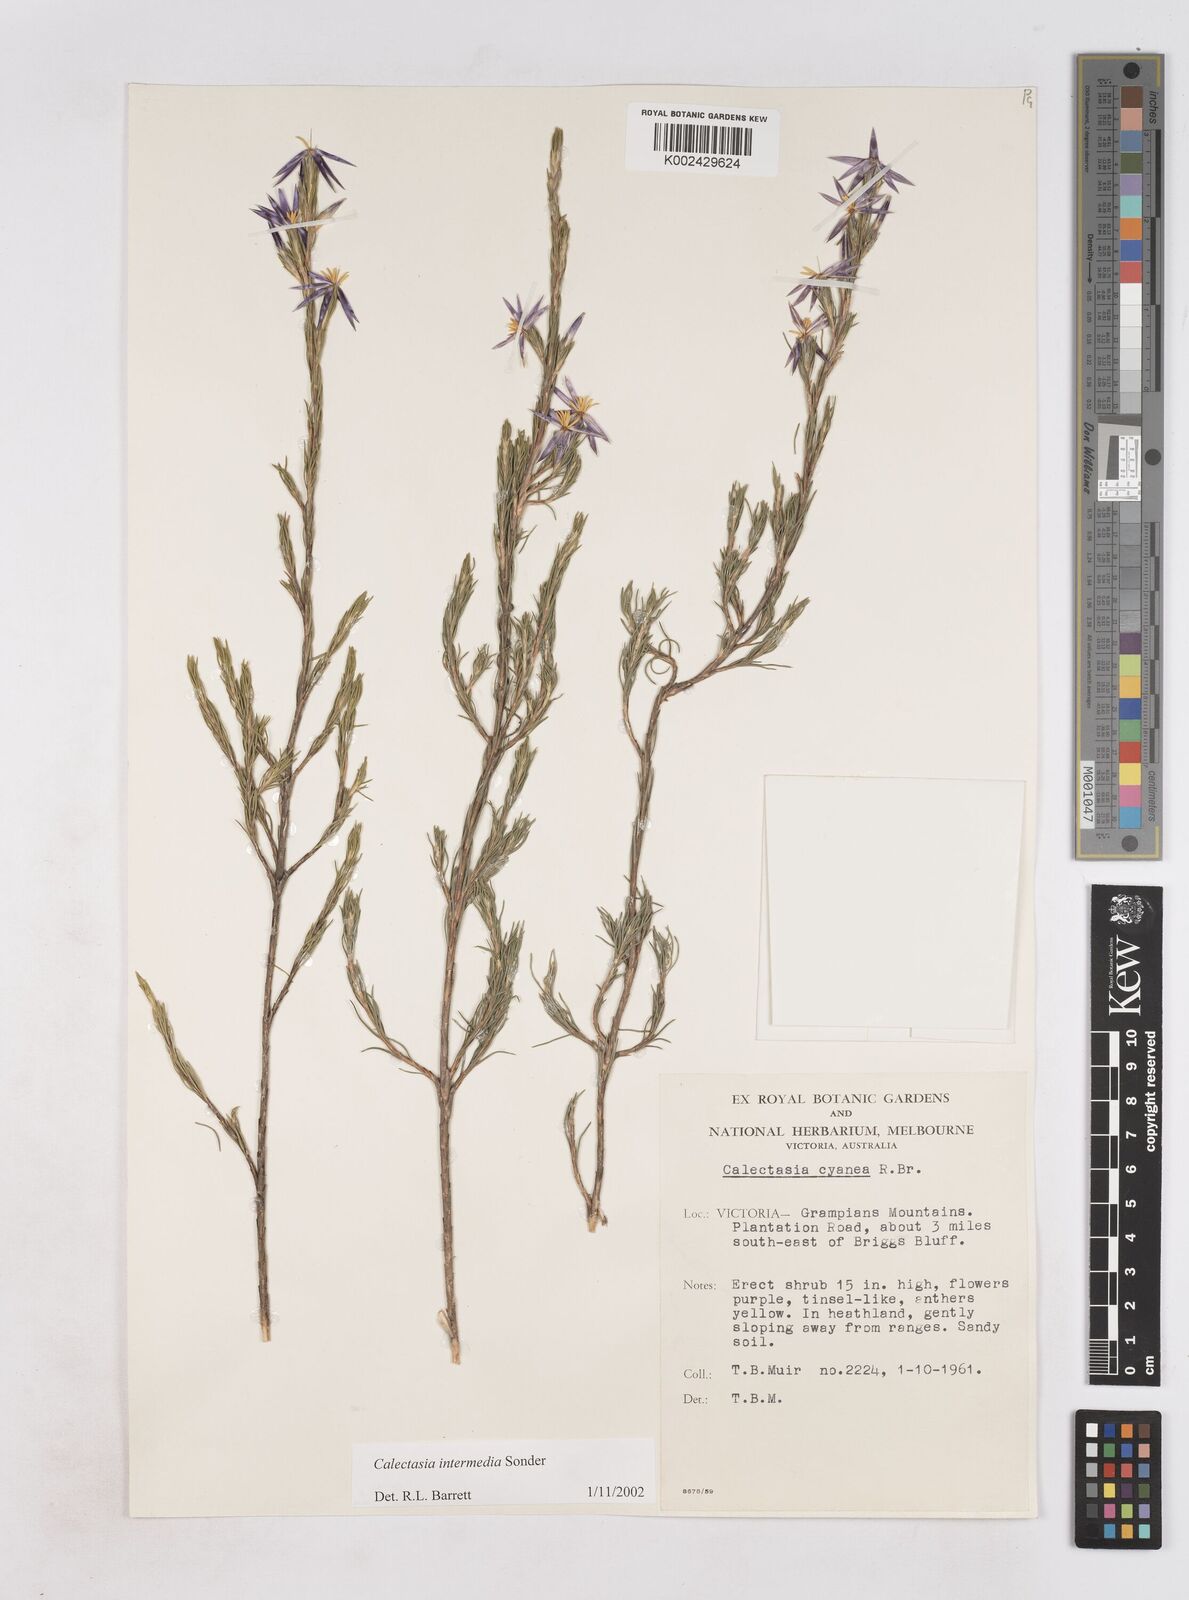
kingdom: Plantae
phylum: Tracheophyta
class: Liliopsida
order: Arecales
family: Dasypogonaceae
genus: Calectasia
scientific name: Calectasia intermedia
